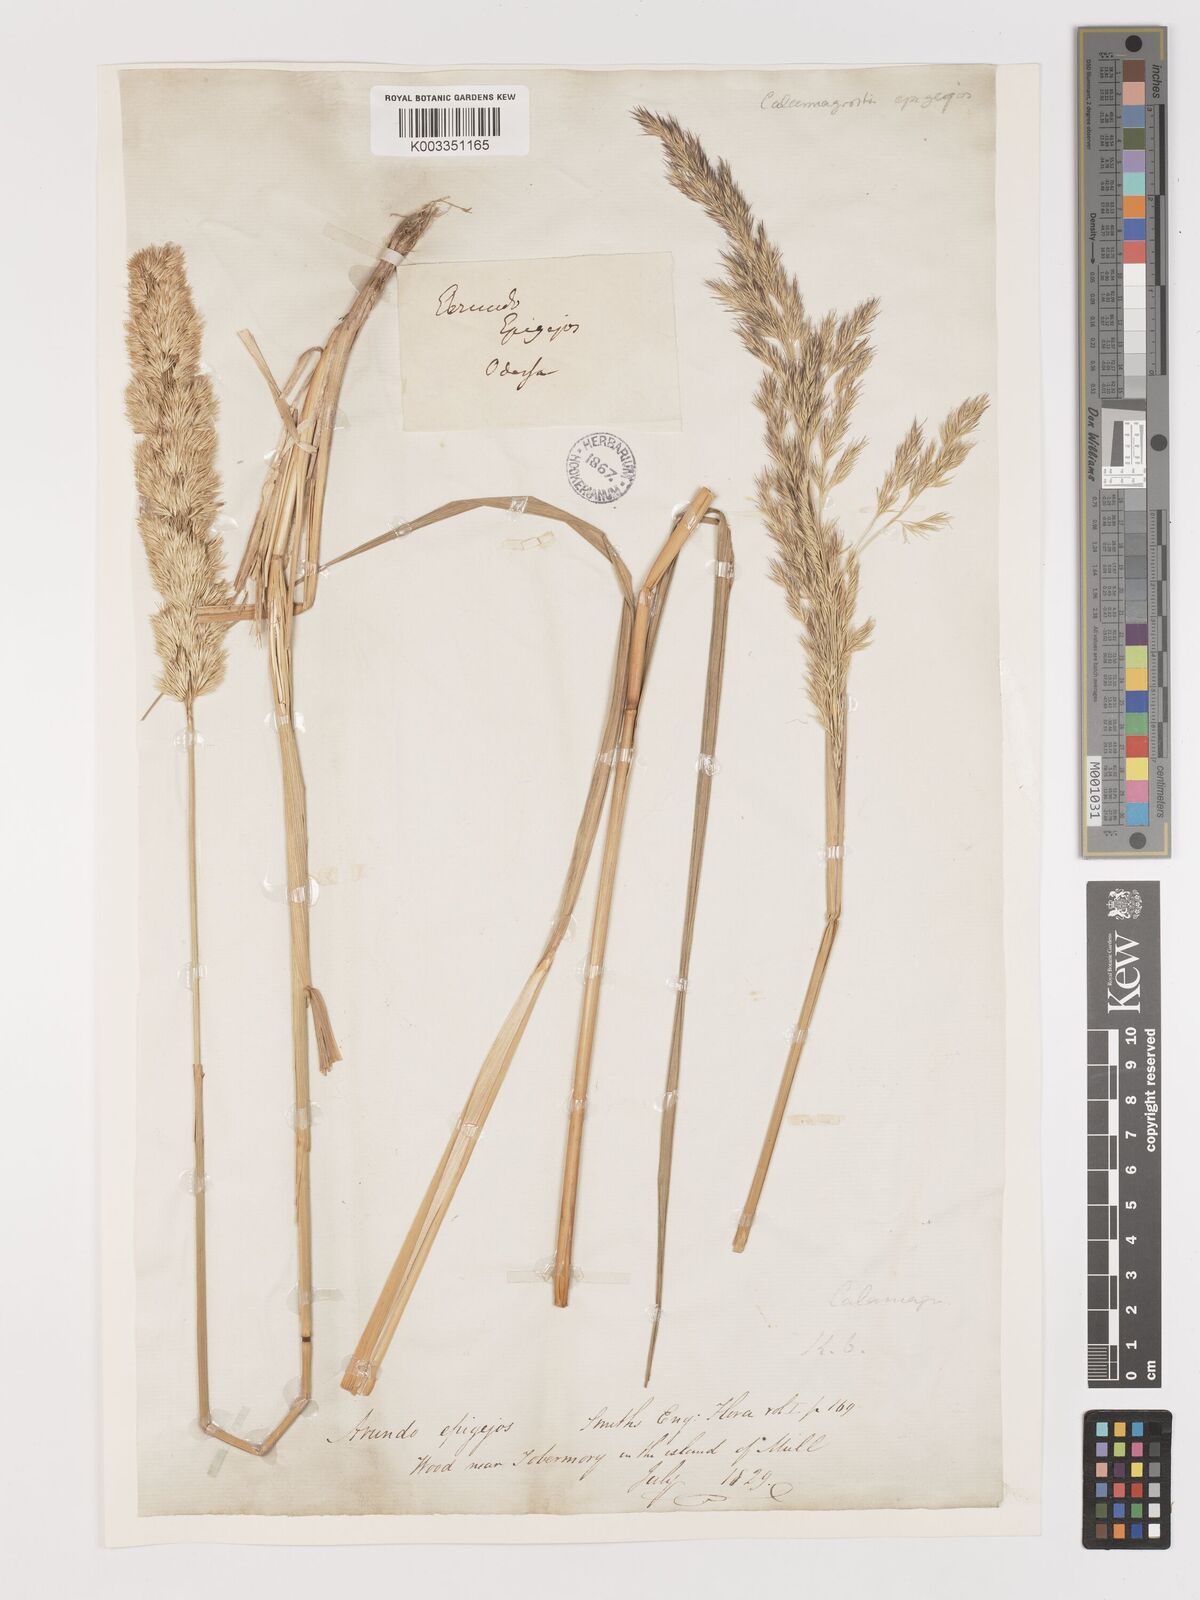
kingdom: Plantae
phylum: Tracheophyta
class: Liliopsida
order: Poales
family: Poaceae
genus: Calamagrostis
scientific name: Calamagrostis
